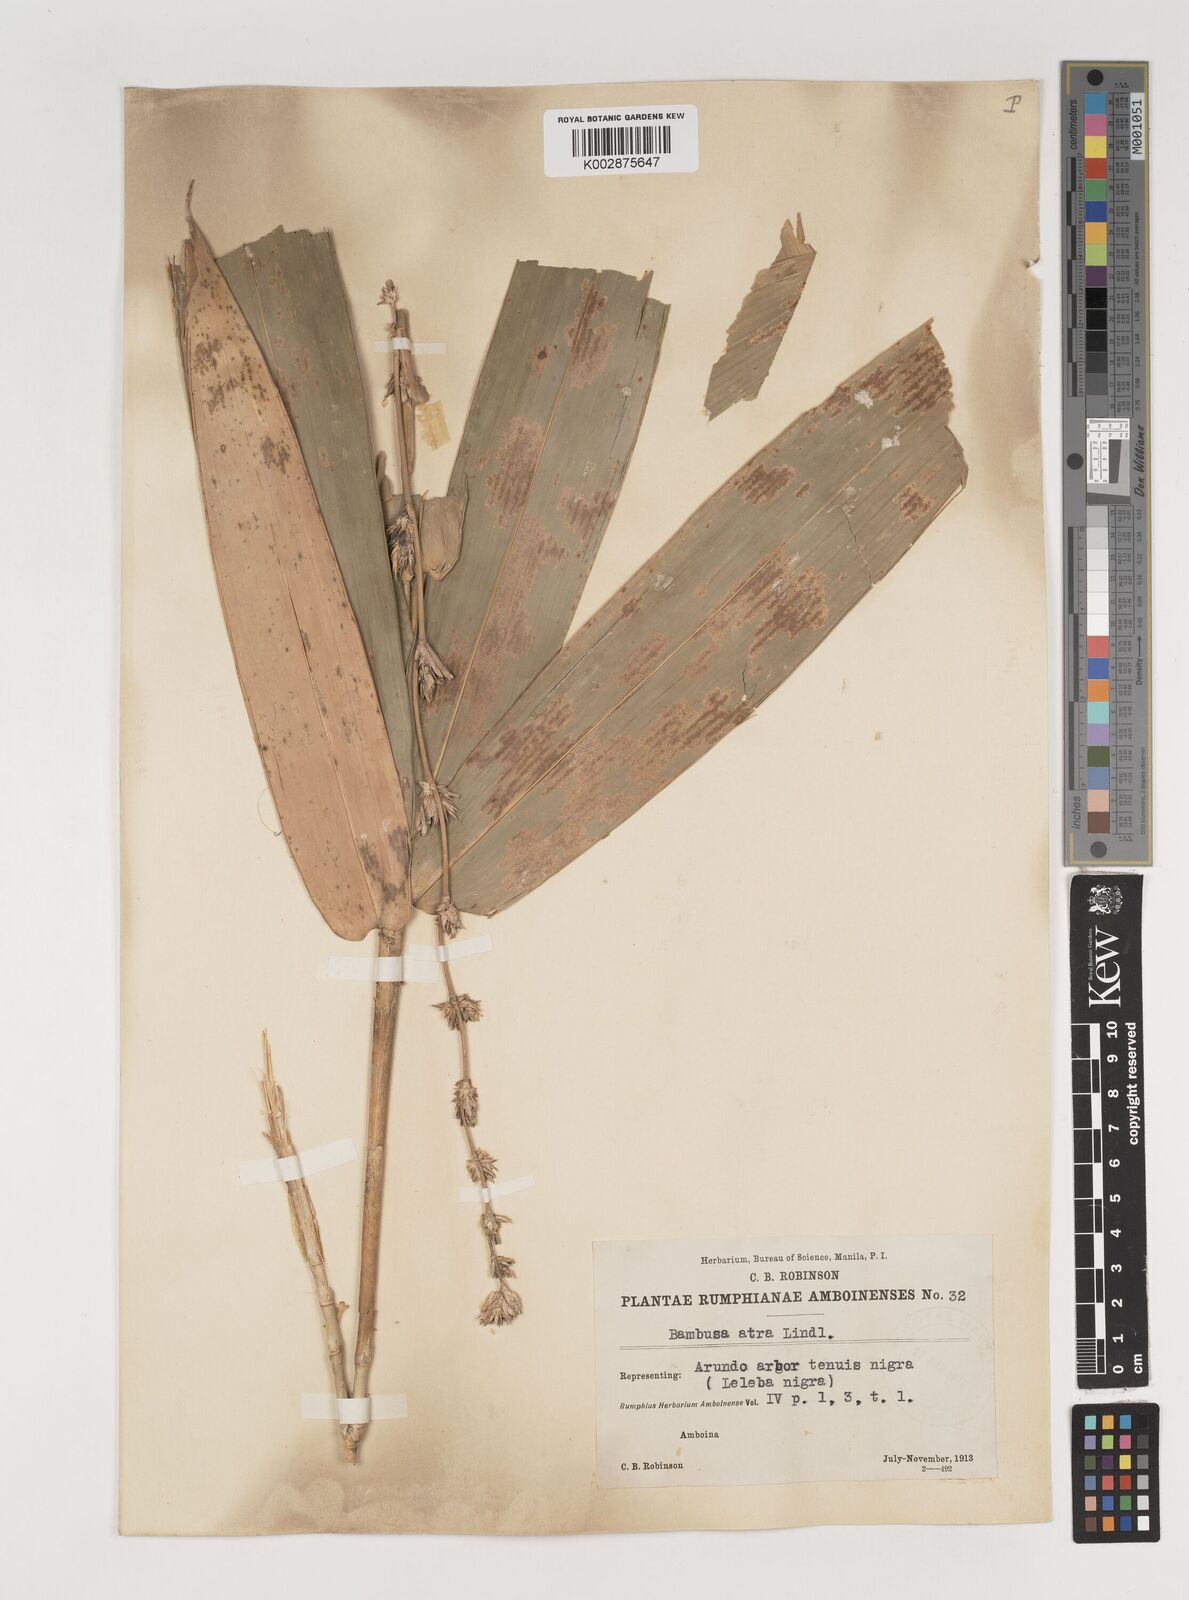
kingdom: Plantae
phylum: Tracheophyta
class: Liliopsida
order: Poales
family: Poaceae
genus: Neololeba
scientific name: Neololeba atra
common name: Cape bamboo
